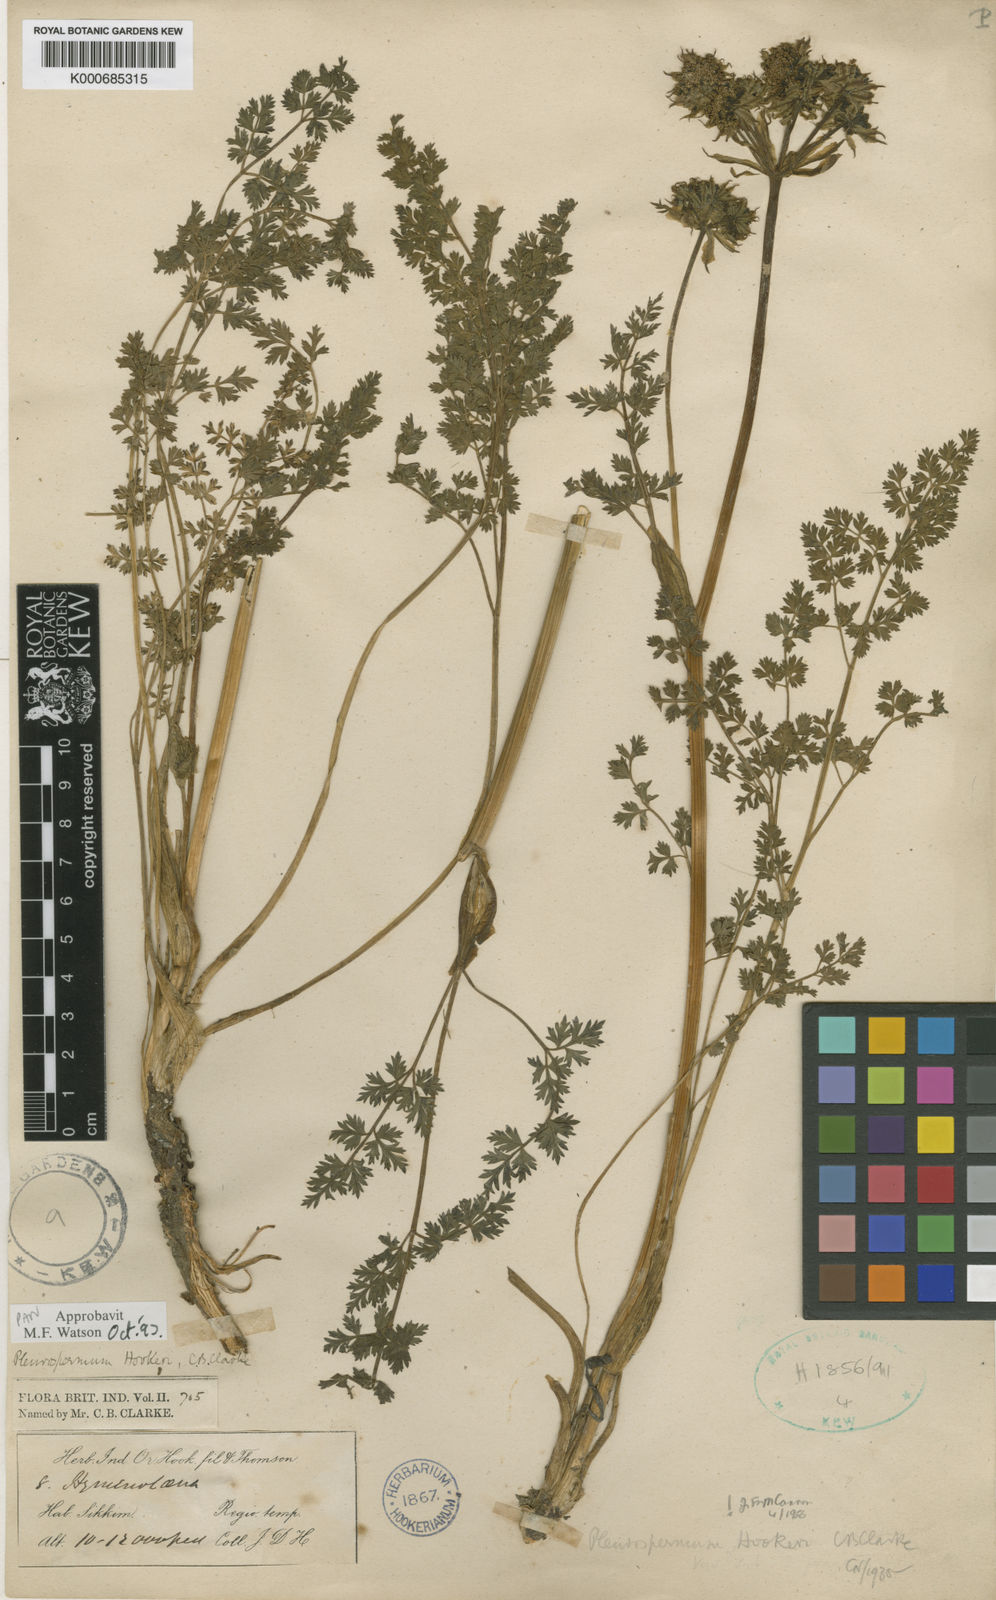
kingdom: Plantae
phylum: Tracheophyta
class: Magnoliopsida
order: Apiales
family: Apiaceae
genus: Pleurospermum
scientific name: Pleurospermum hookeri
